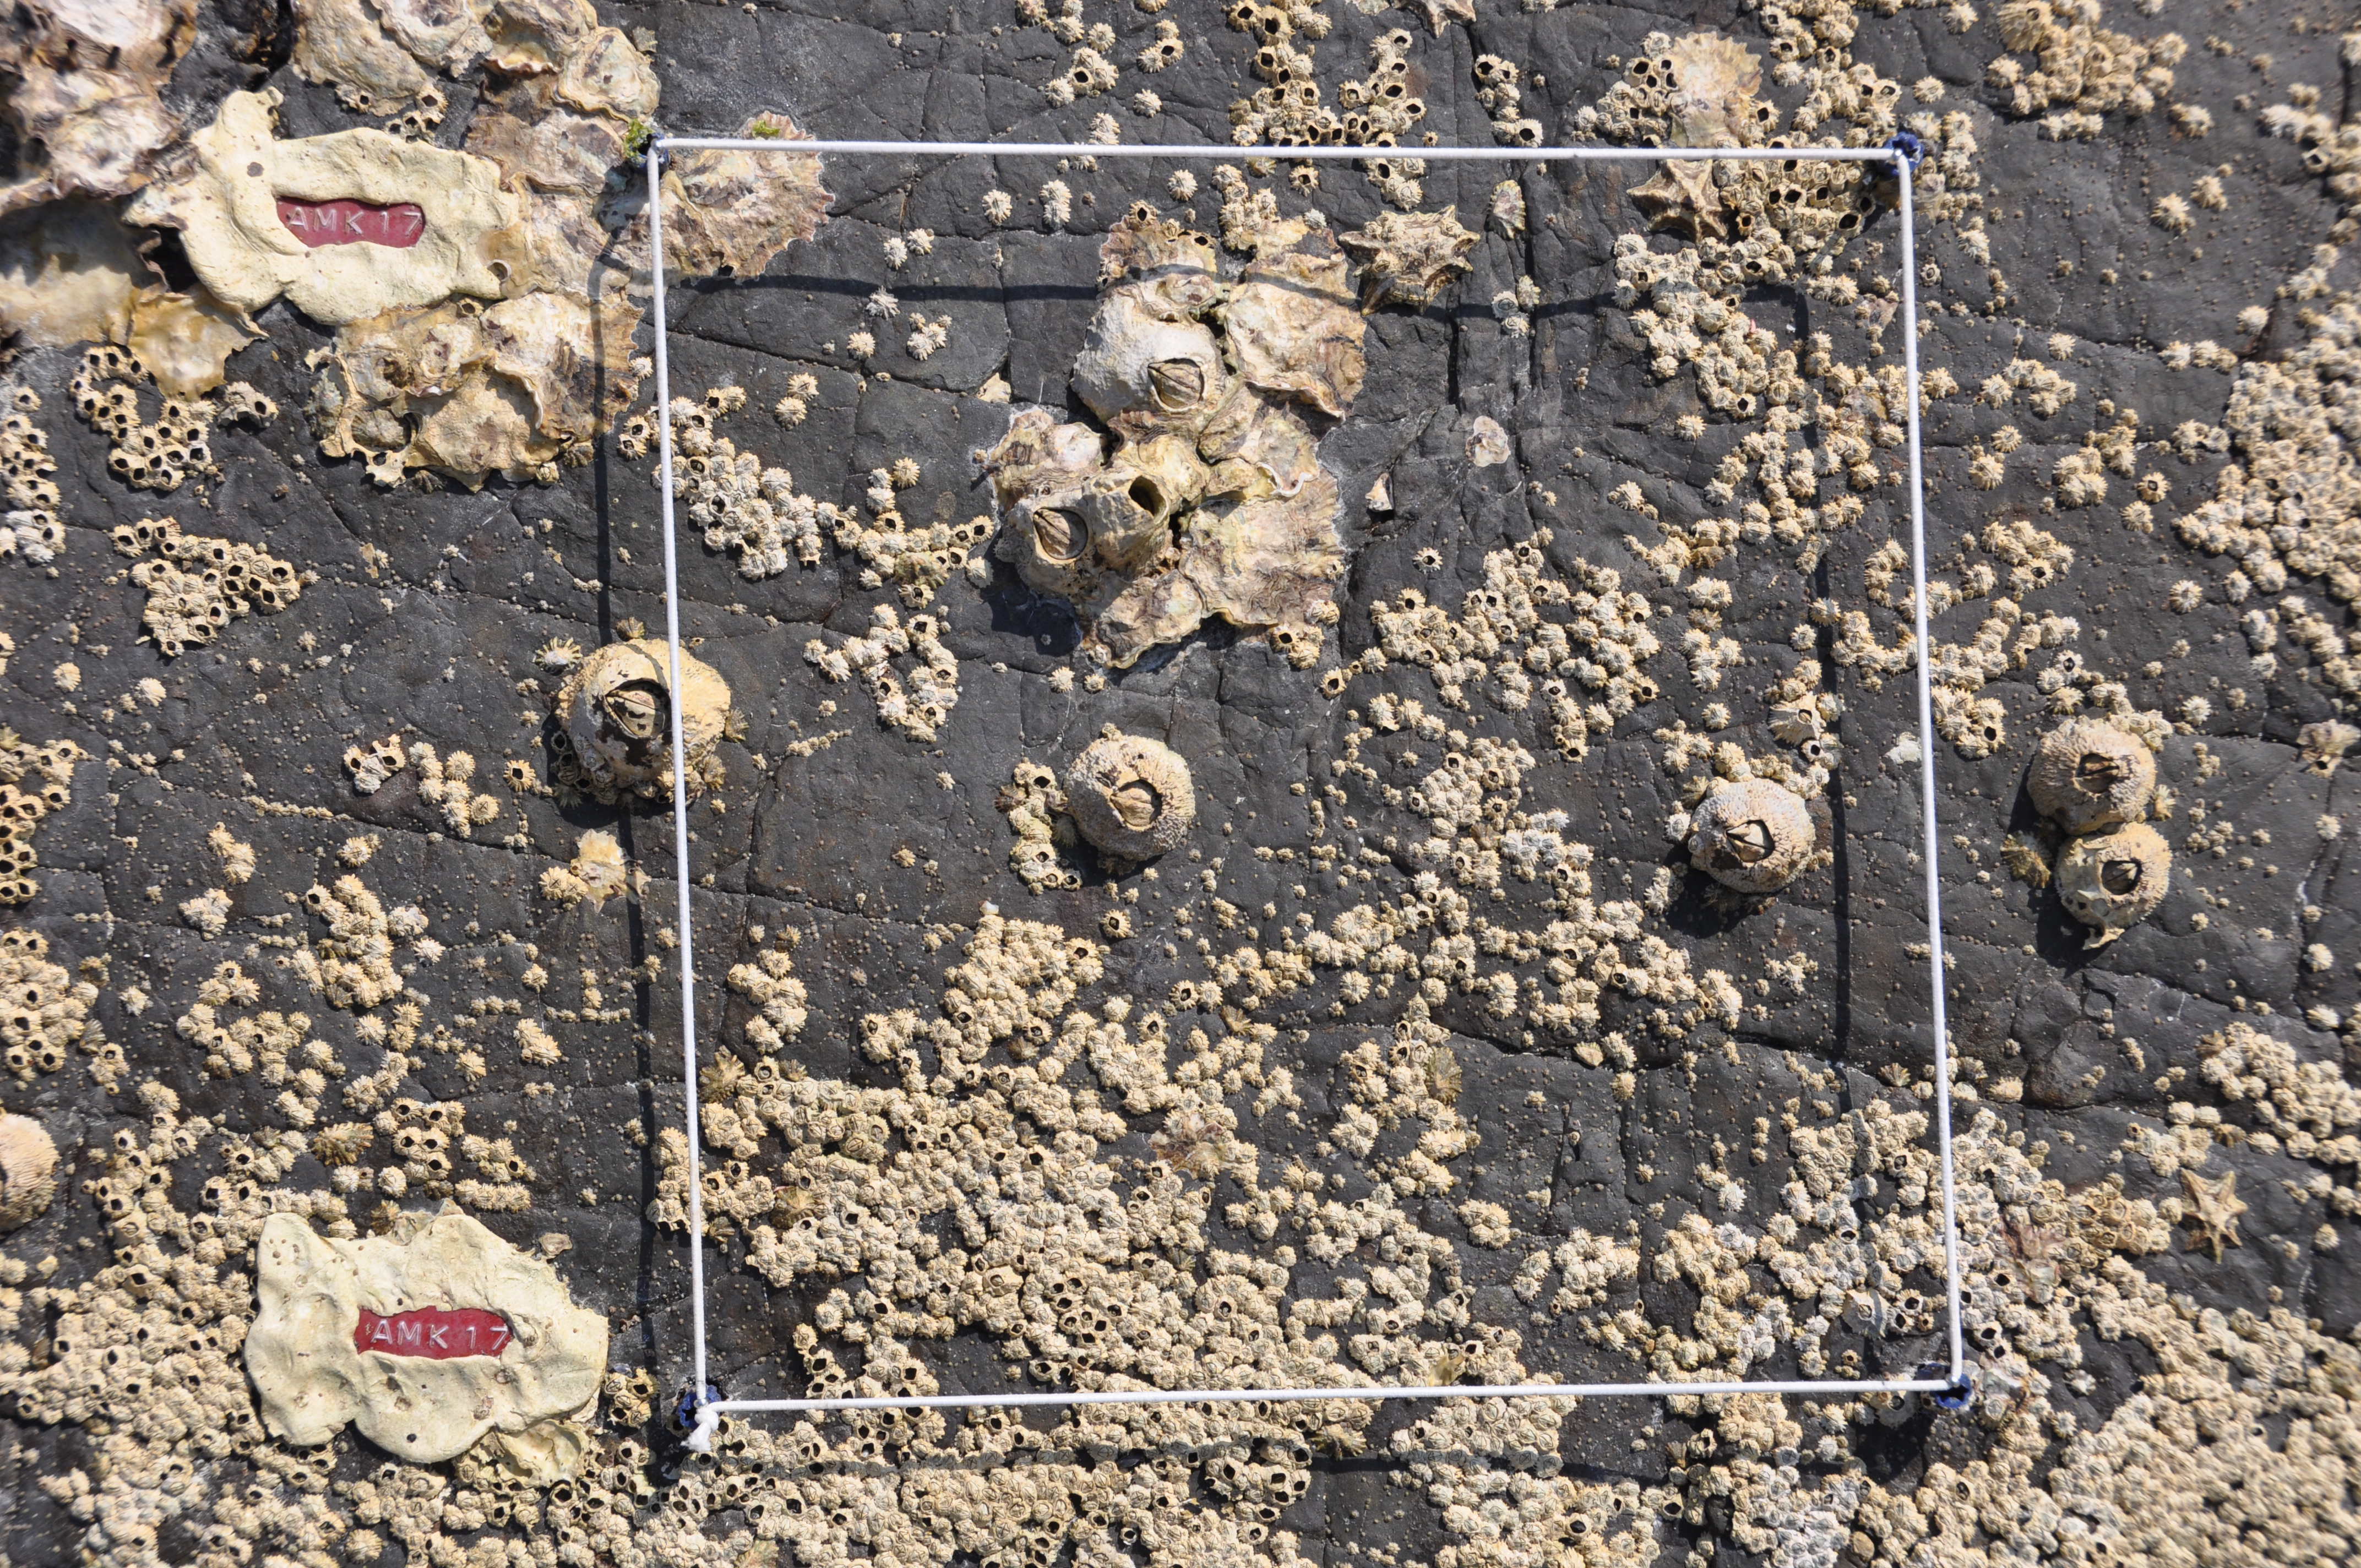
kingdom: Animalia
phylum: Arthropoda
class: Maxillopoda
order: Sessilia
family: Chthamalidae
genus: Chthamalus
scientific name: Chthamalus challengeri
